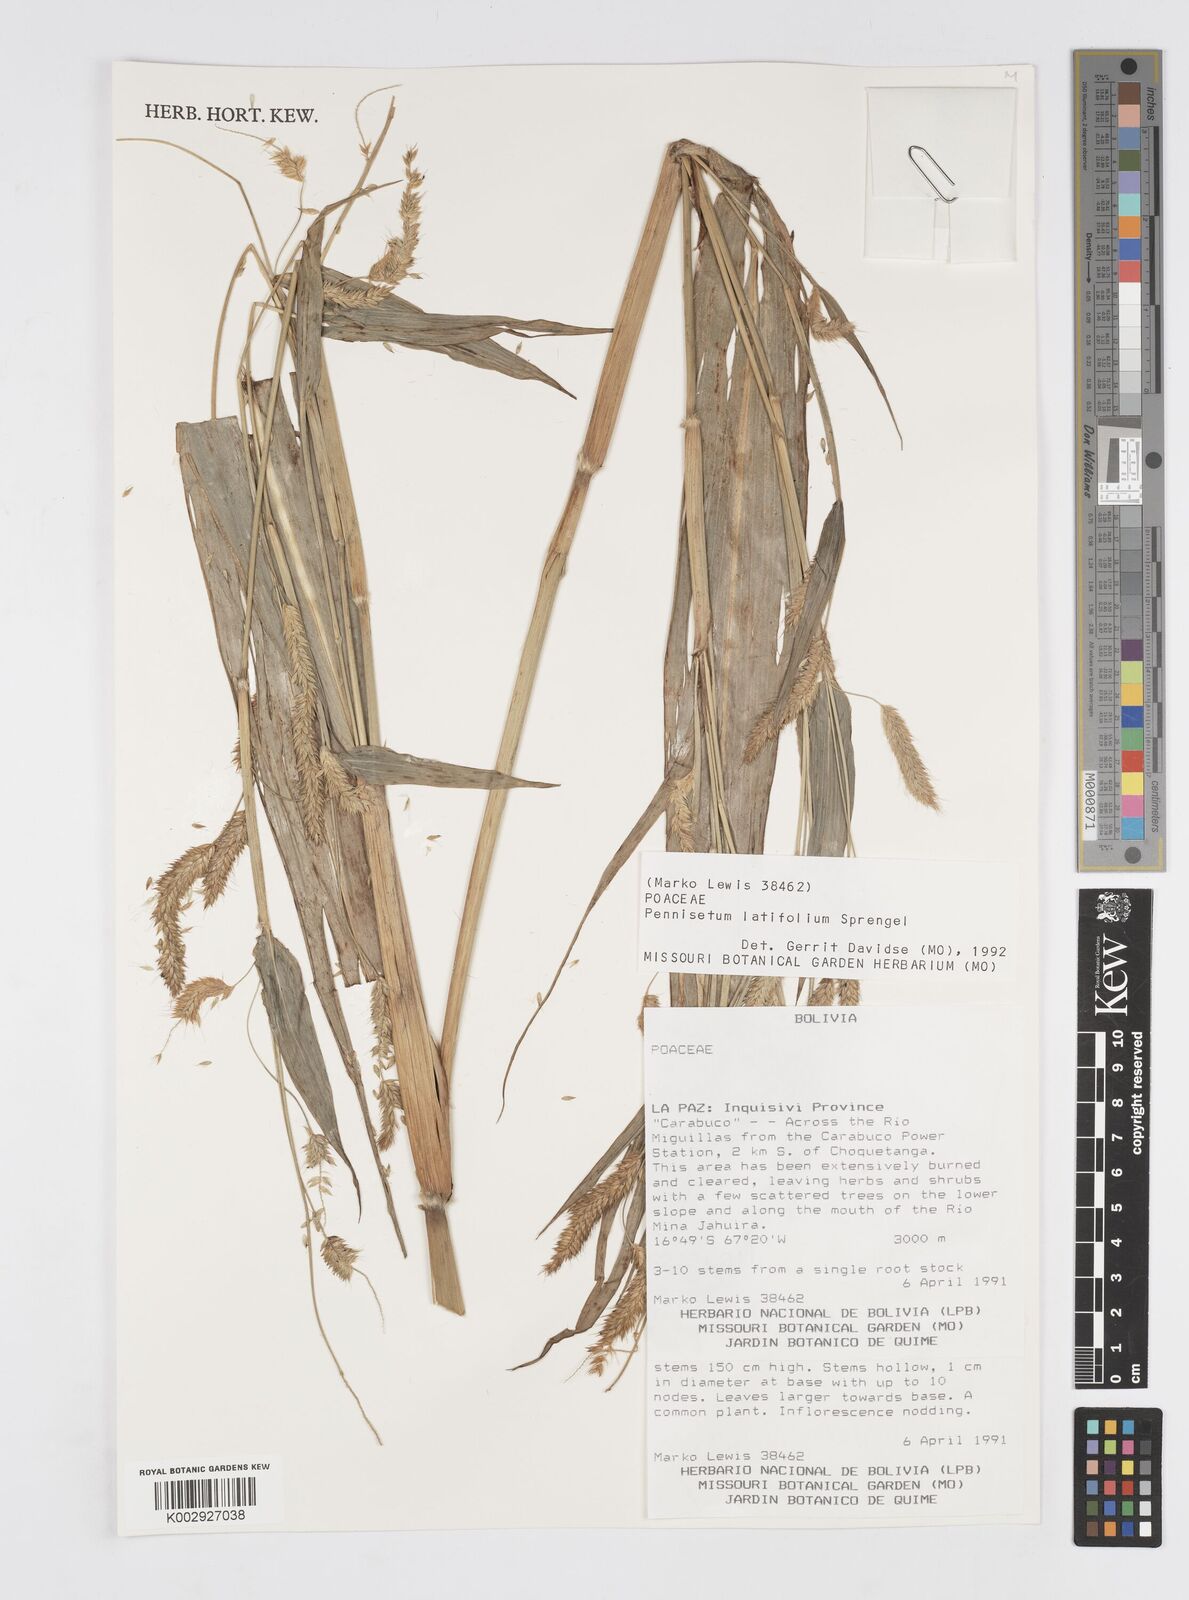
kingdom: Plantae
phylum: Tracheophyta
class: Liliopsida
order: Poales
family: Poaceae
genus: Cenchrus
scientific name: Cenchrus latifolius
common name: Sandbur
